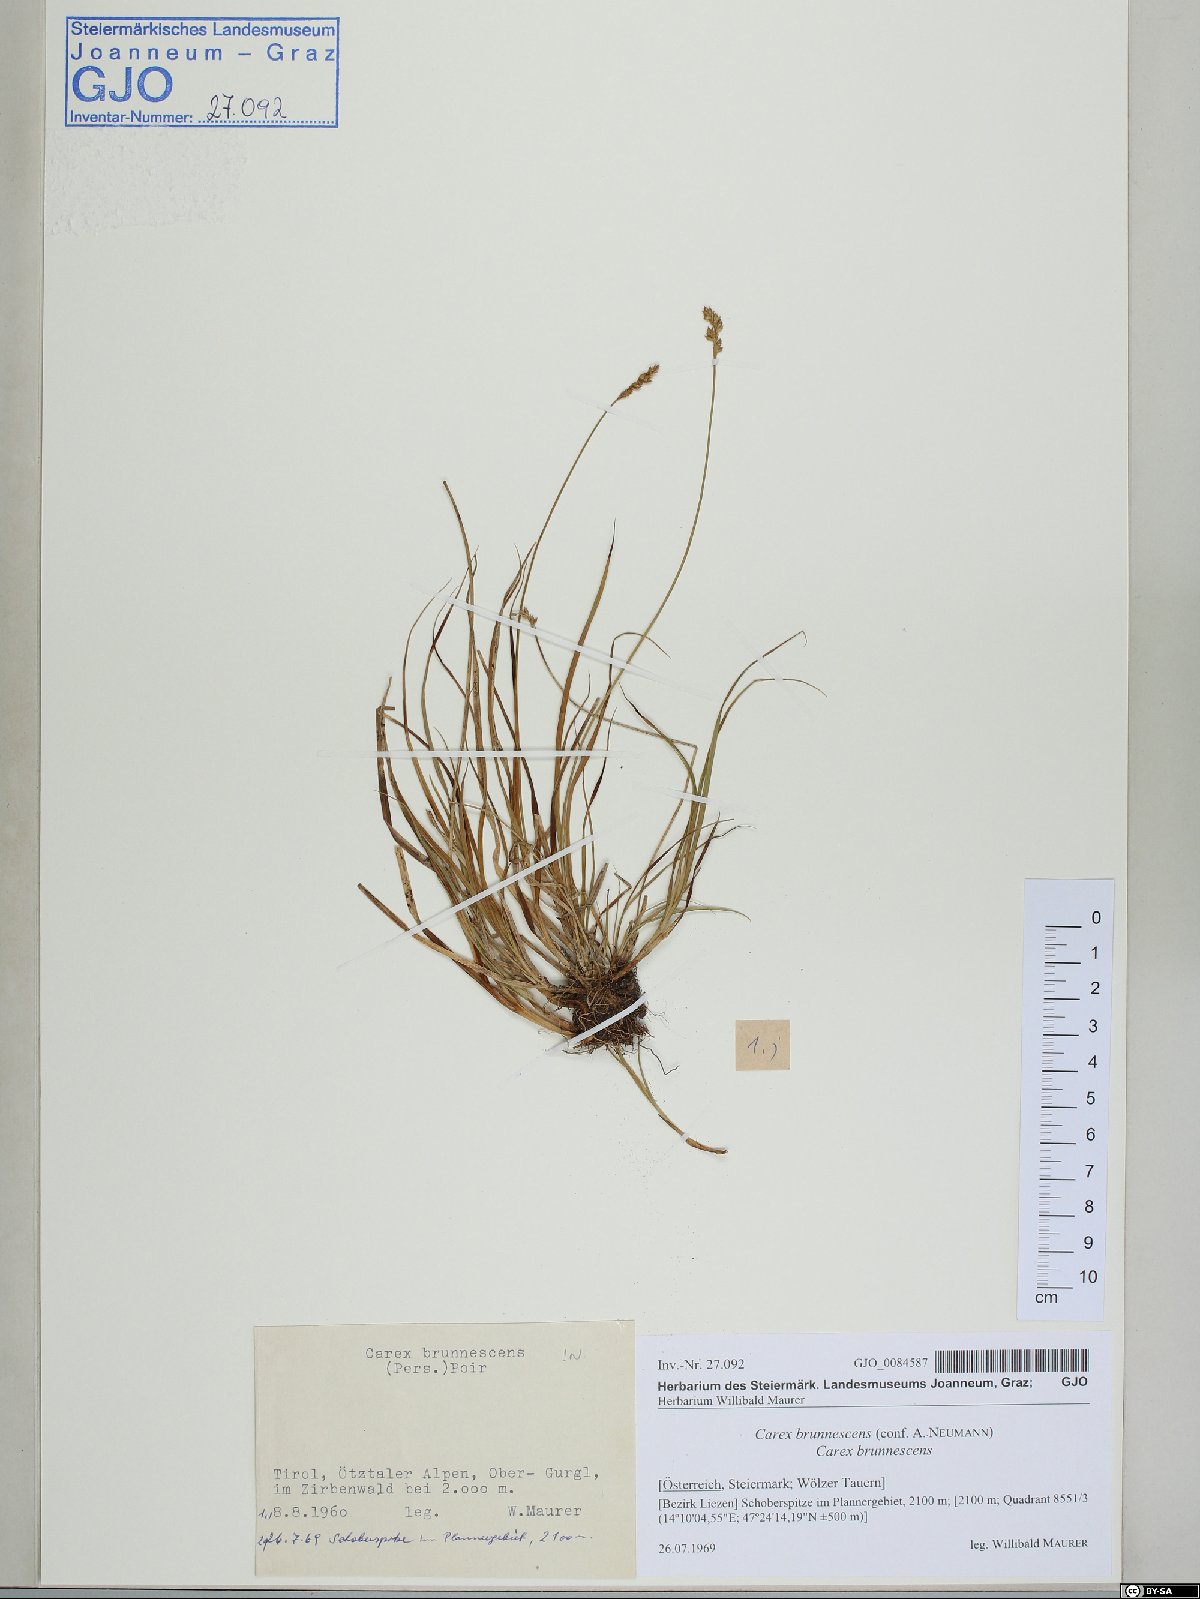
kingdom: Plantae
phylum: Tracheophyta
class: Liliopsida
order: Poales
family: Cyperaceae
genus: Carex
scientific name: Carex brunnescens
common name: Brown sedge
